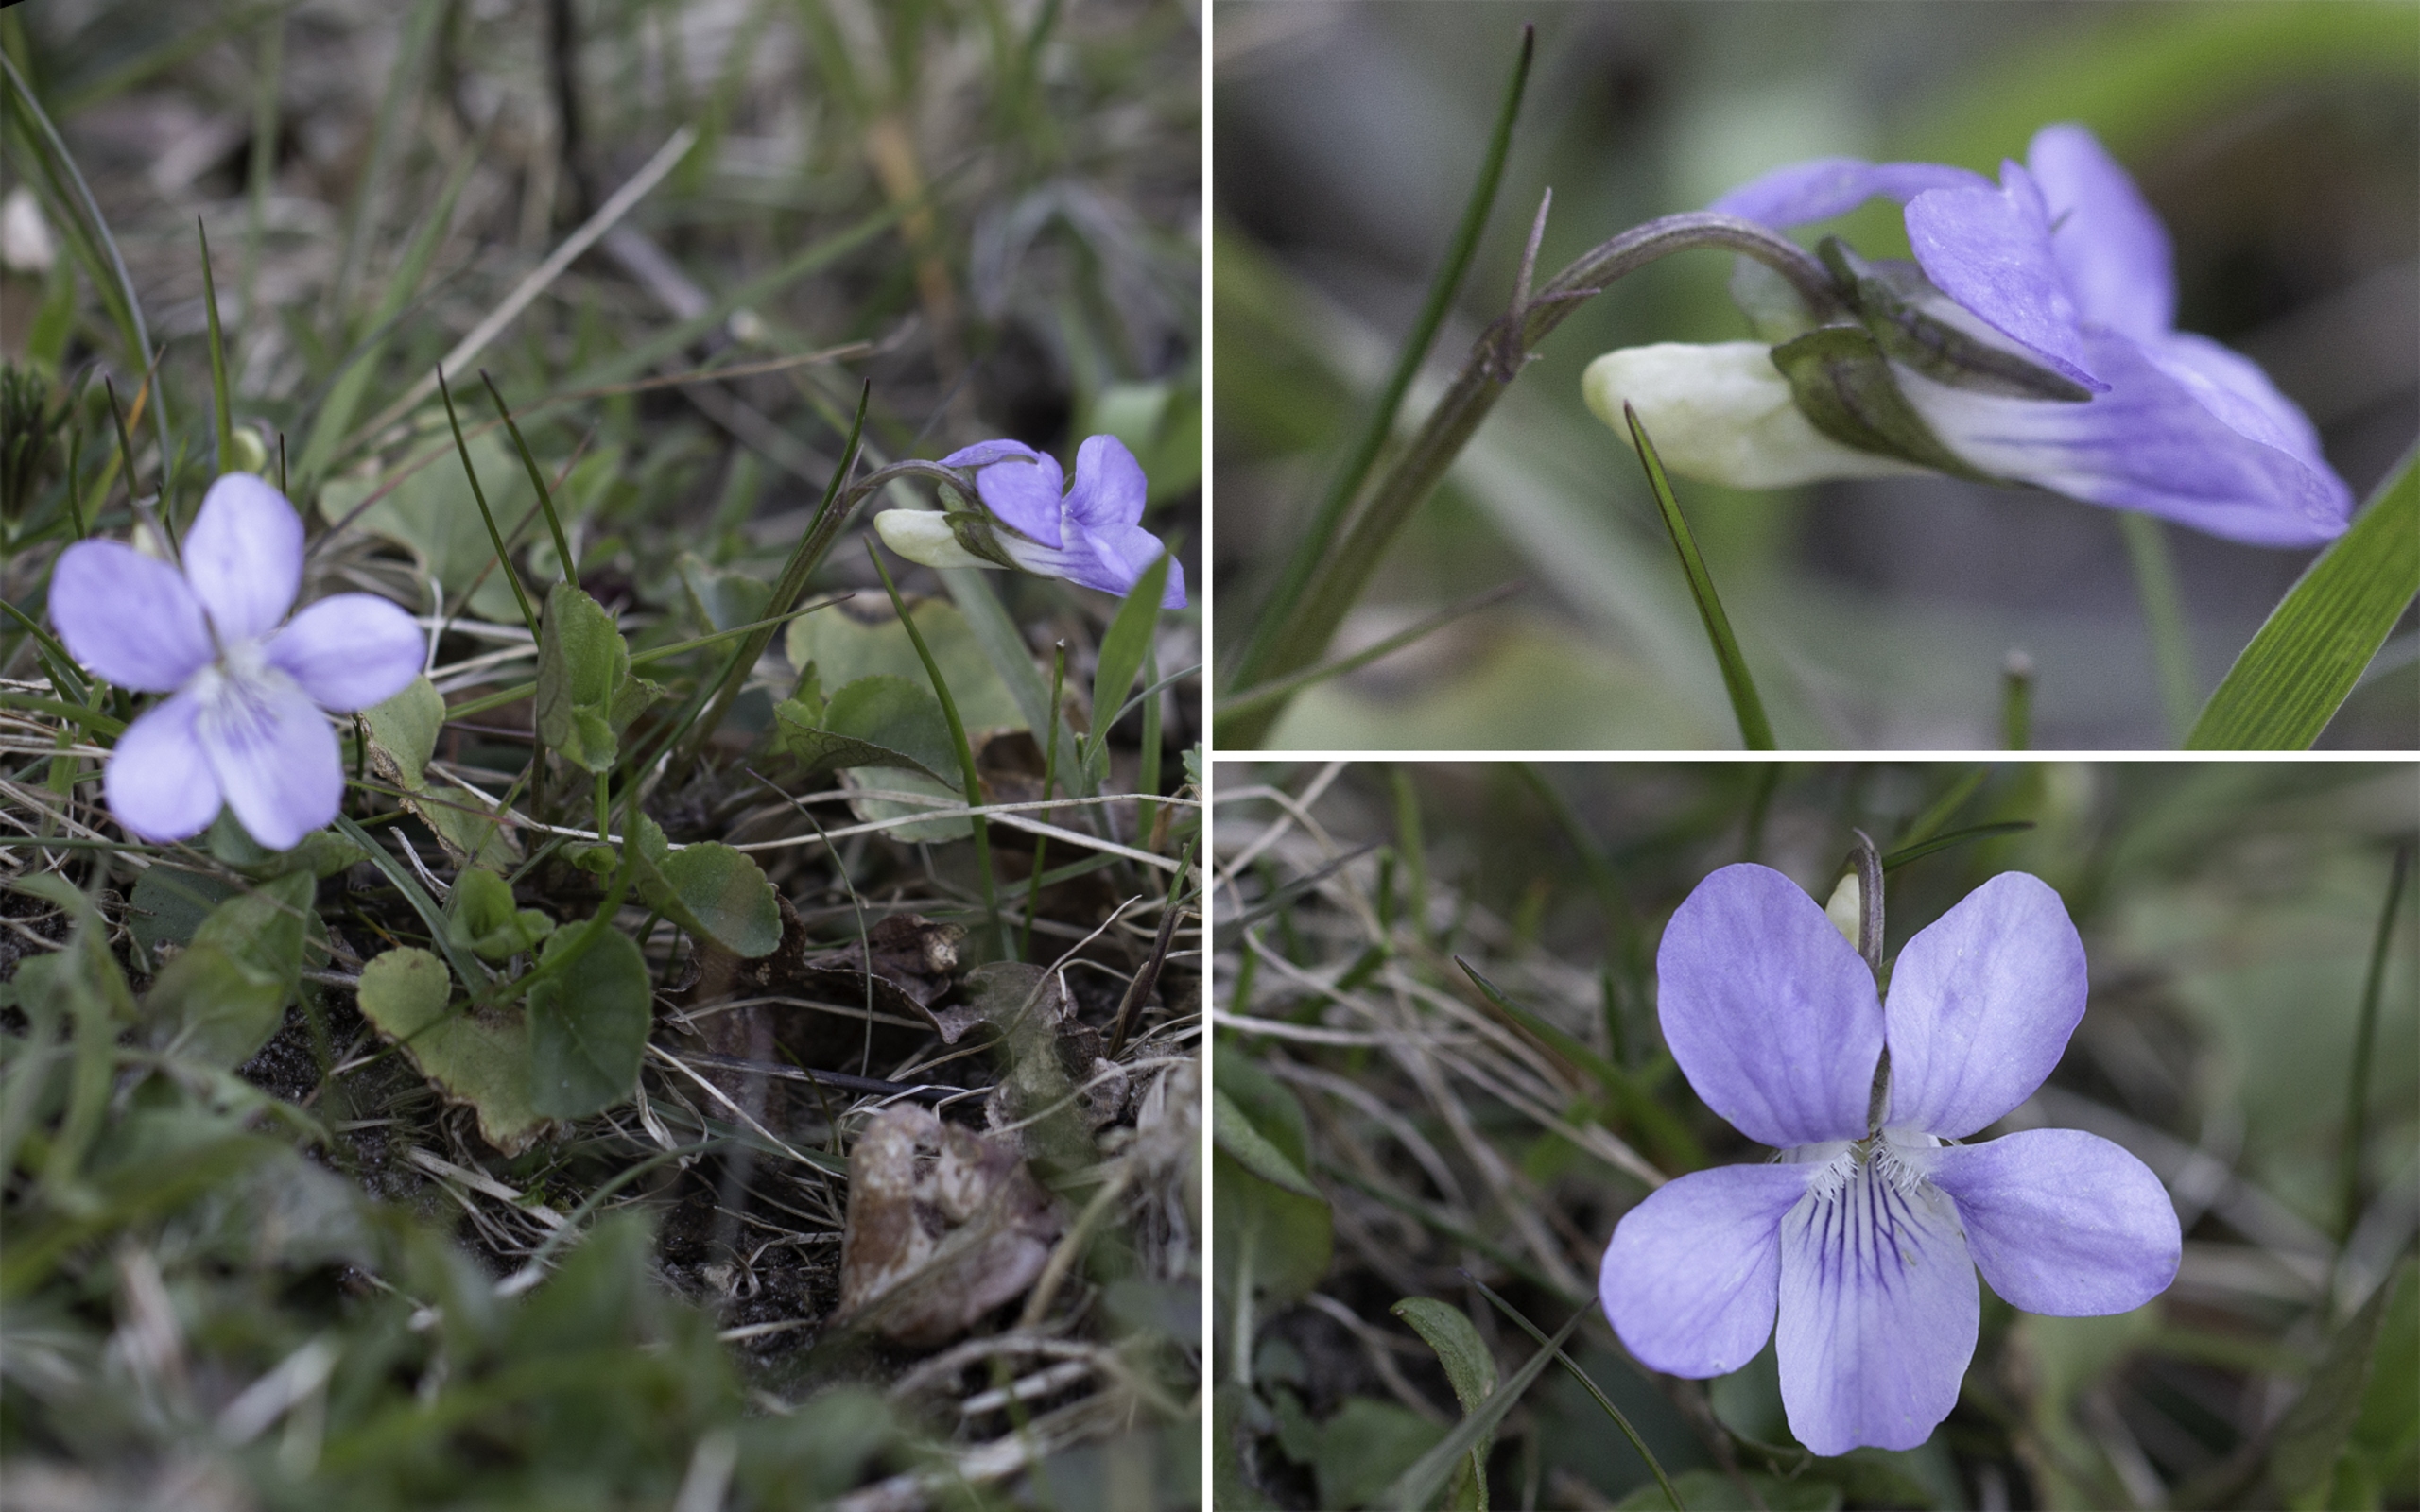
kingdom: Plantae
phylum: Tracheophyta
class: Magnoliopsida
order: Malpighiales
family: Violaceae
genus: Viola
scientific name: Viola riviniana
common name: Krat-viol
